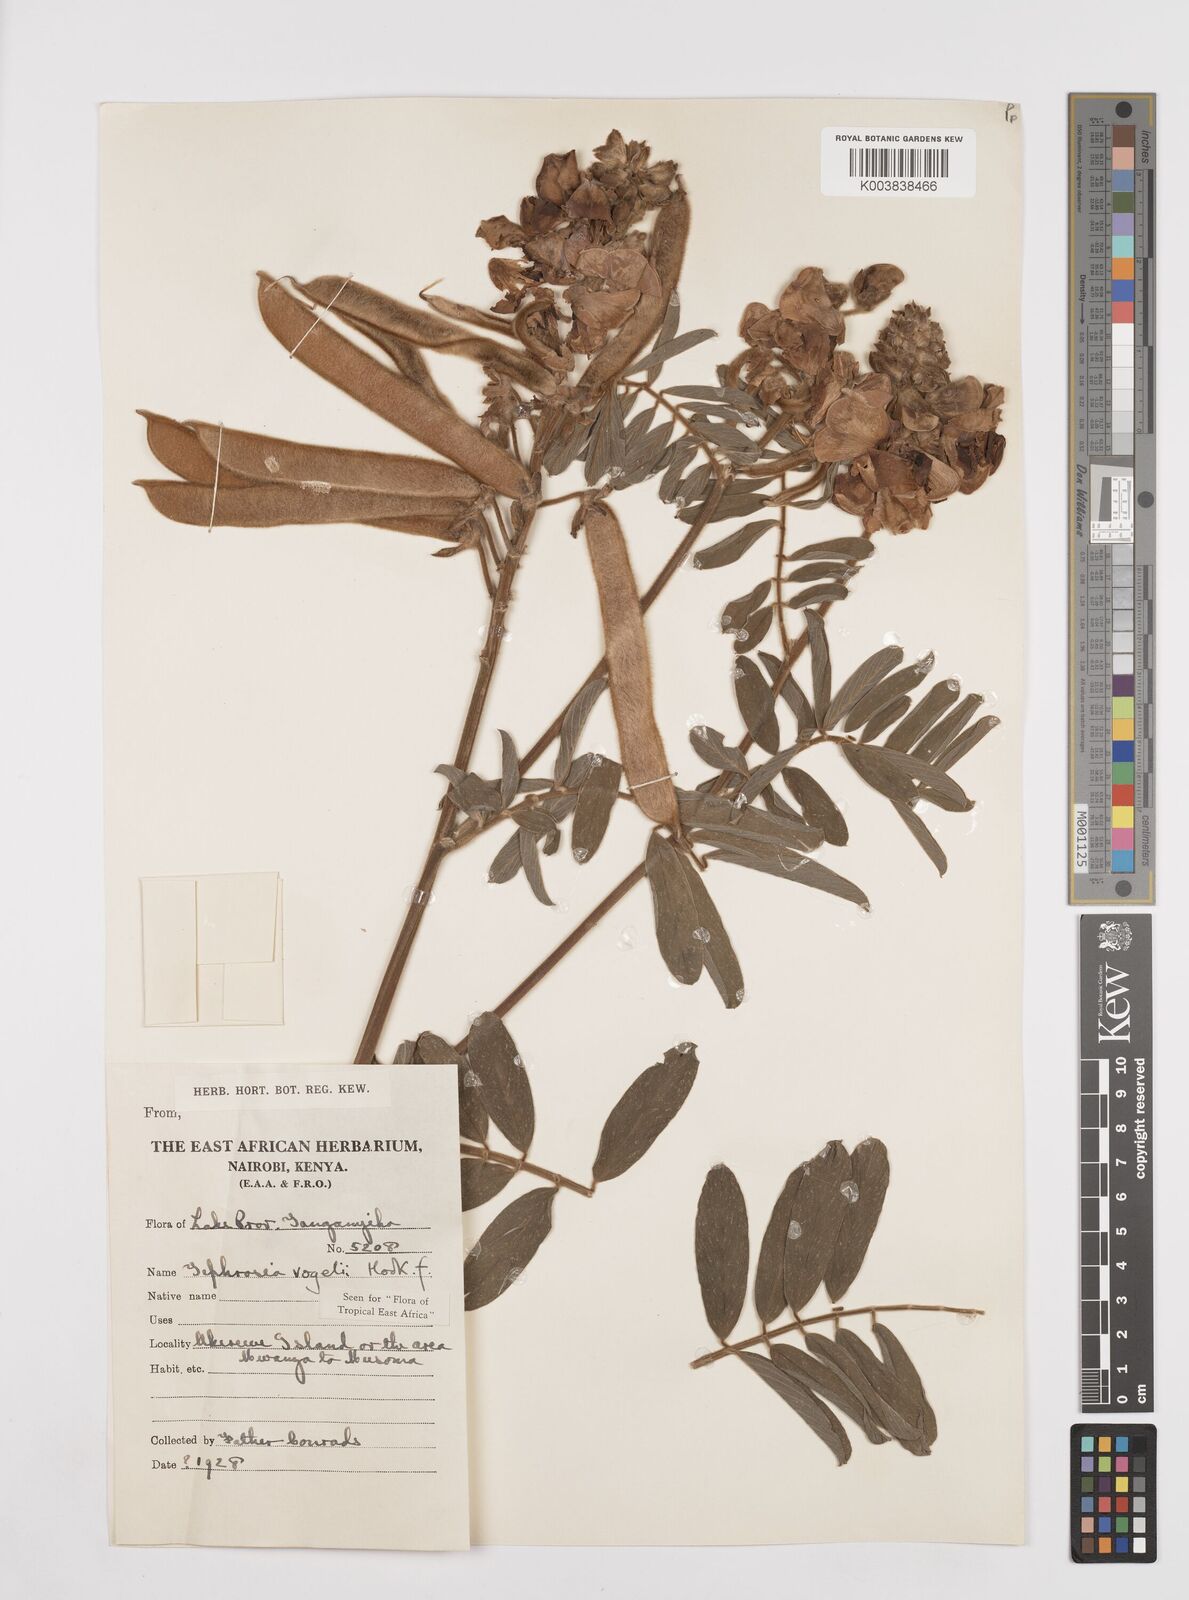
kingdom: Plantae
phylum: Tracheophyta
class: Magnoliopsida
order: Fabales
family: Fabaceae
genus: Tephrosia
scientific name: Tephrosia vogelii
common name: Vogel tephrosia
